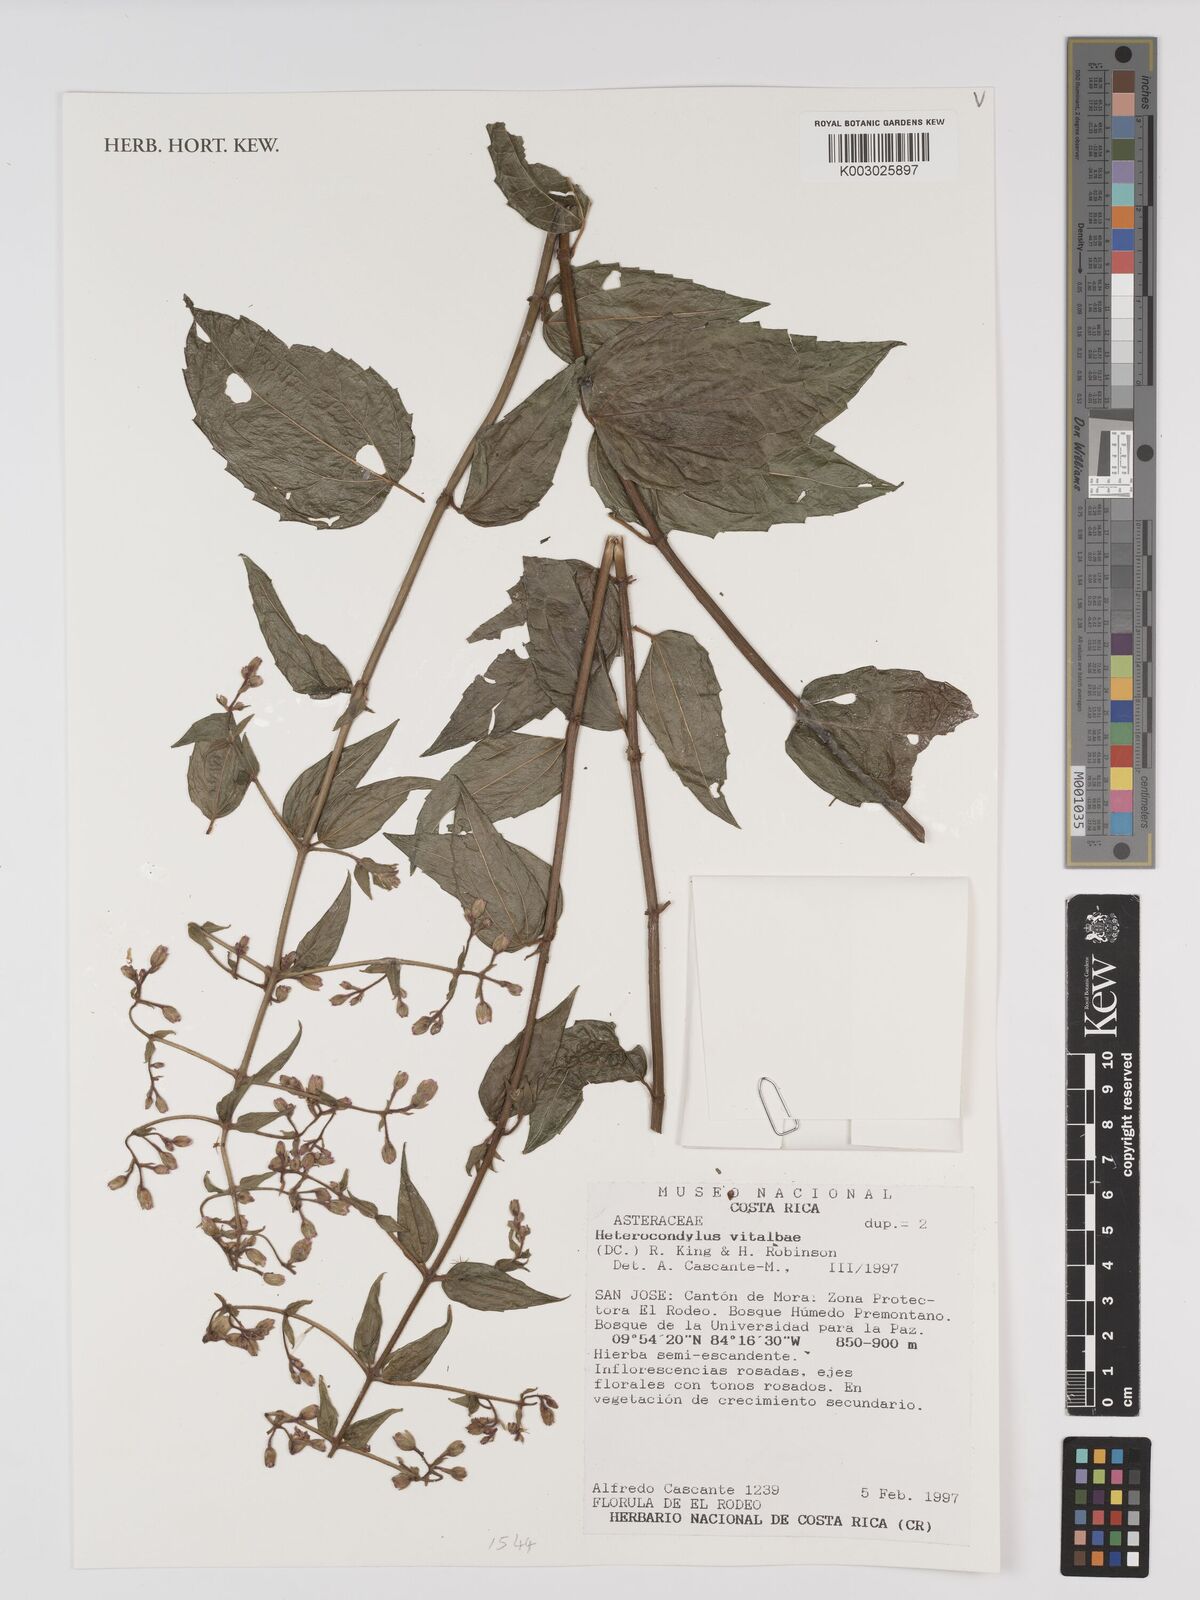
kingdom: Plantae
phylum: Tracheophyta
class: Magnoliopsida
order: Asterales
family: Asteraceae
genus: Heterocondylus
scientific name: Heterocondylus vitalbae
